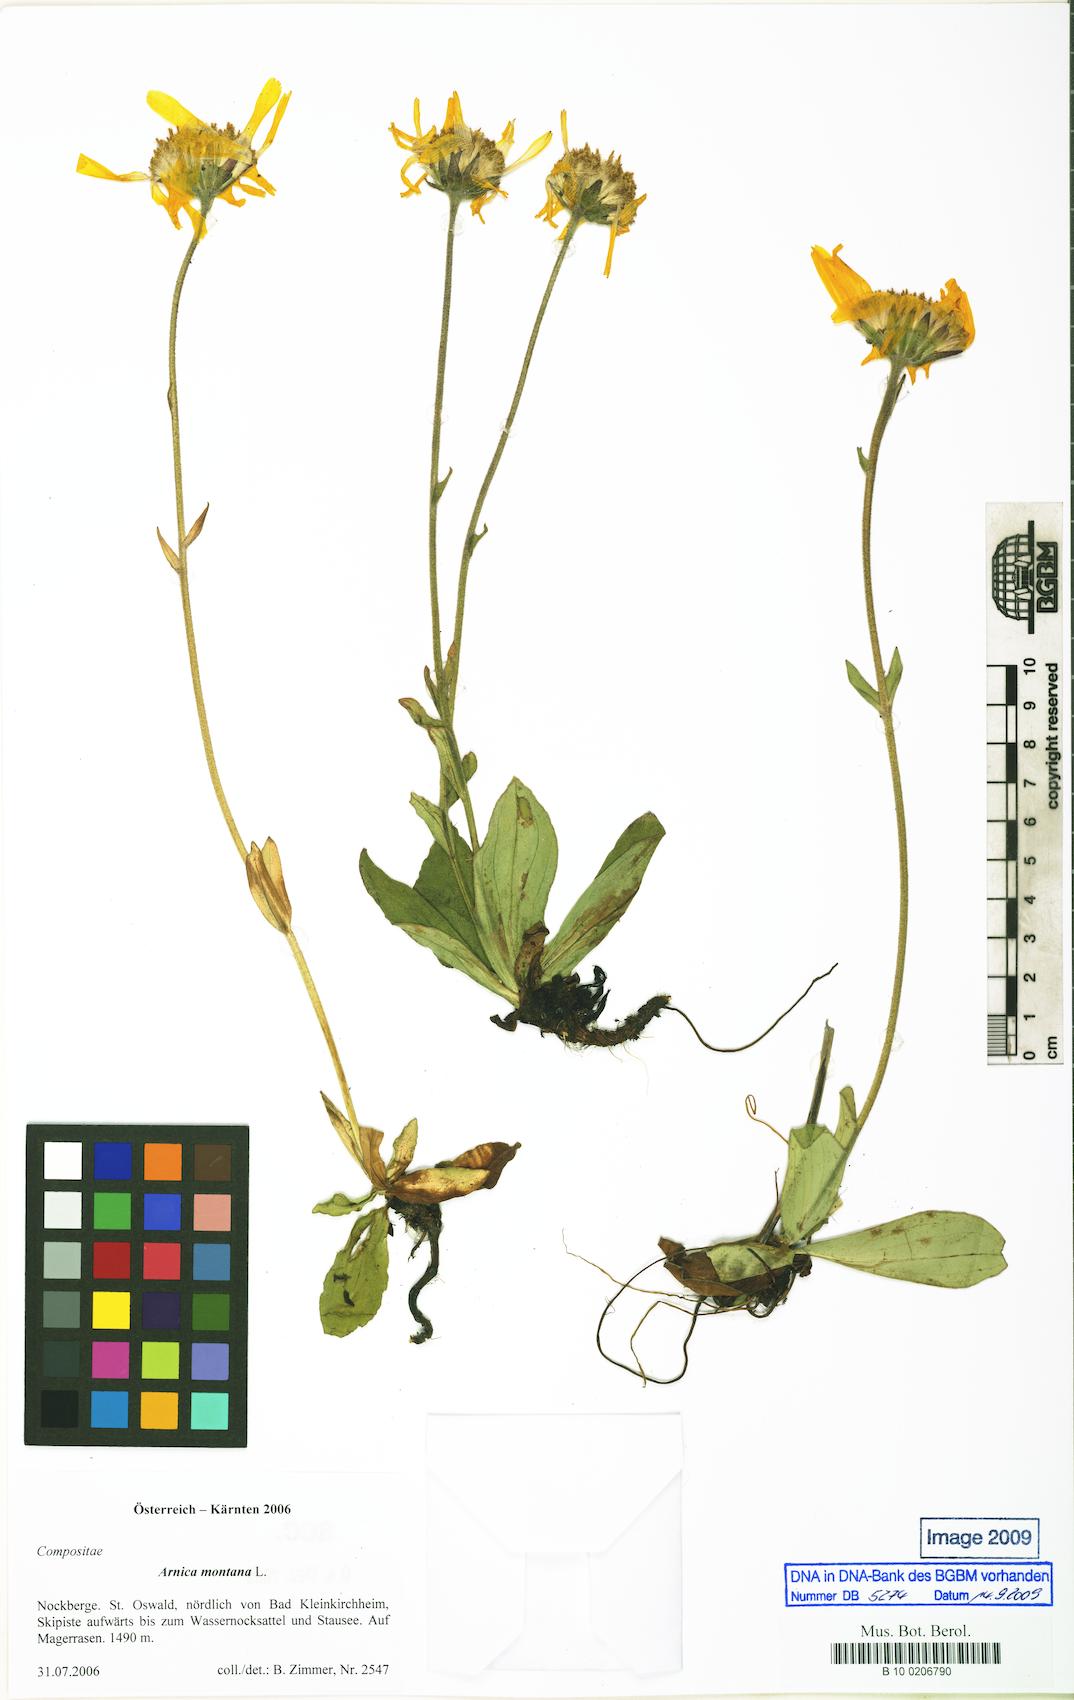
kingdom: Plantae
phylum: Tracheophyta
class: Magnoliopsida
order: Asterales
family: Asteraceae
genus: Arnica
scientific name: Arnica montana
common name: Leopard's bane
